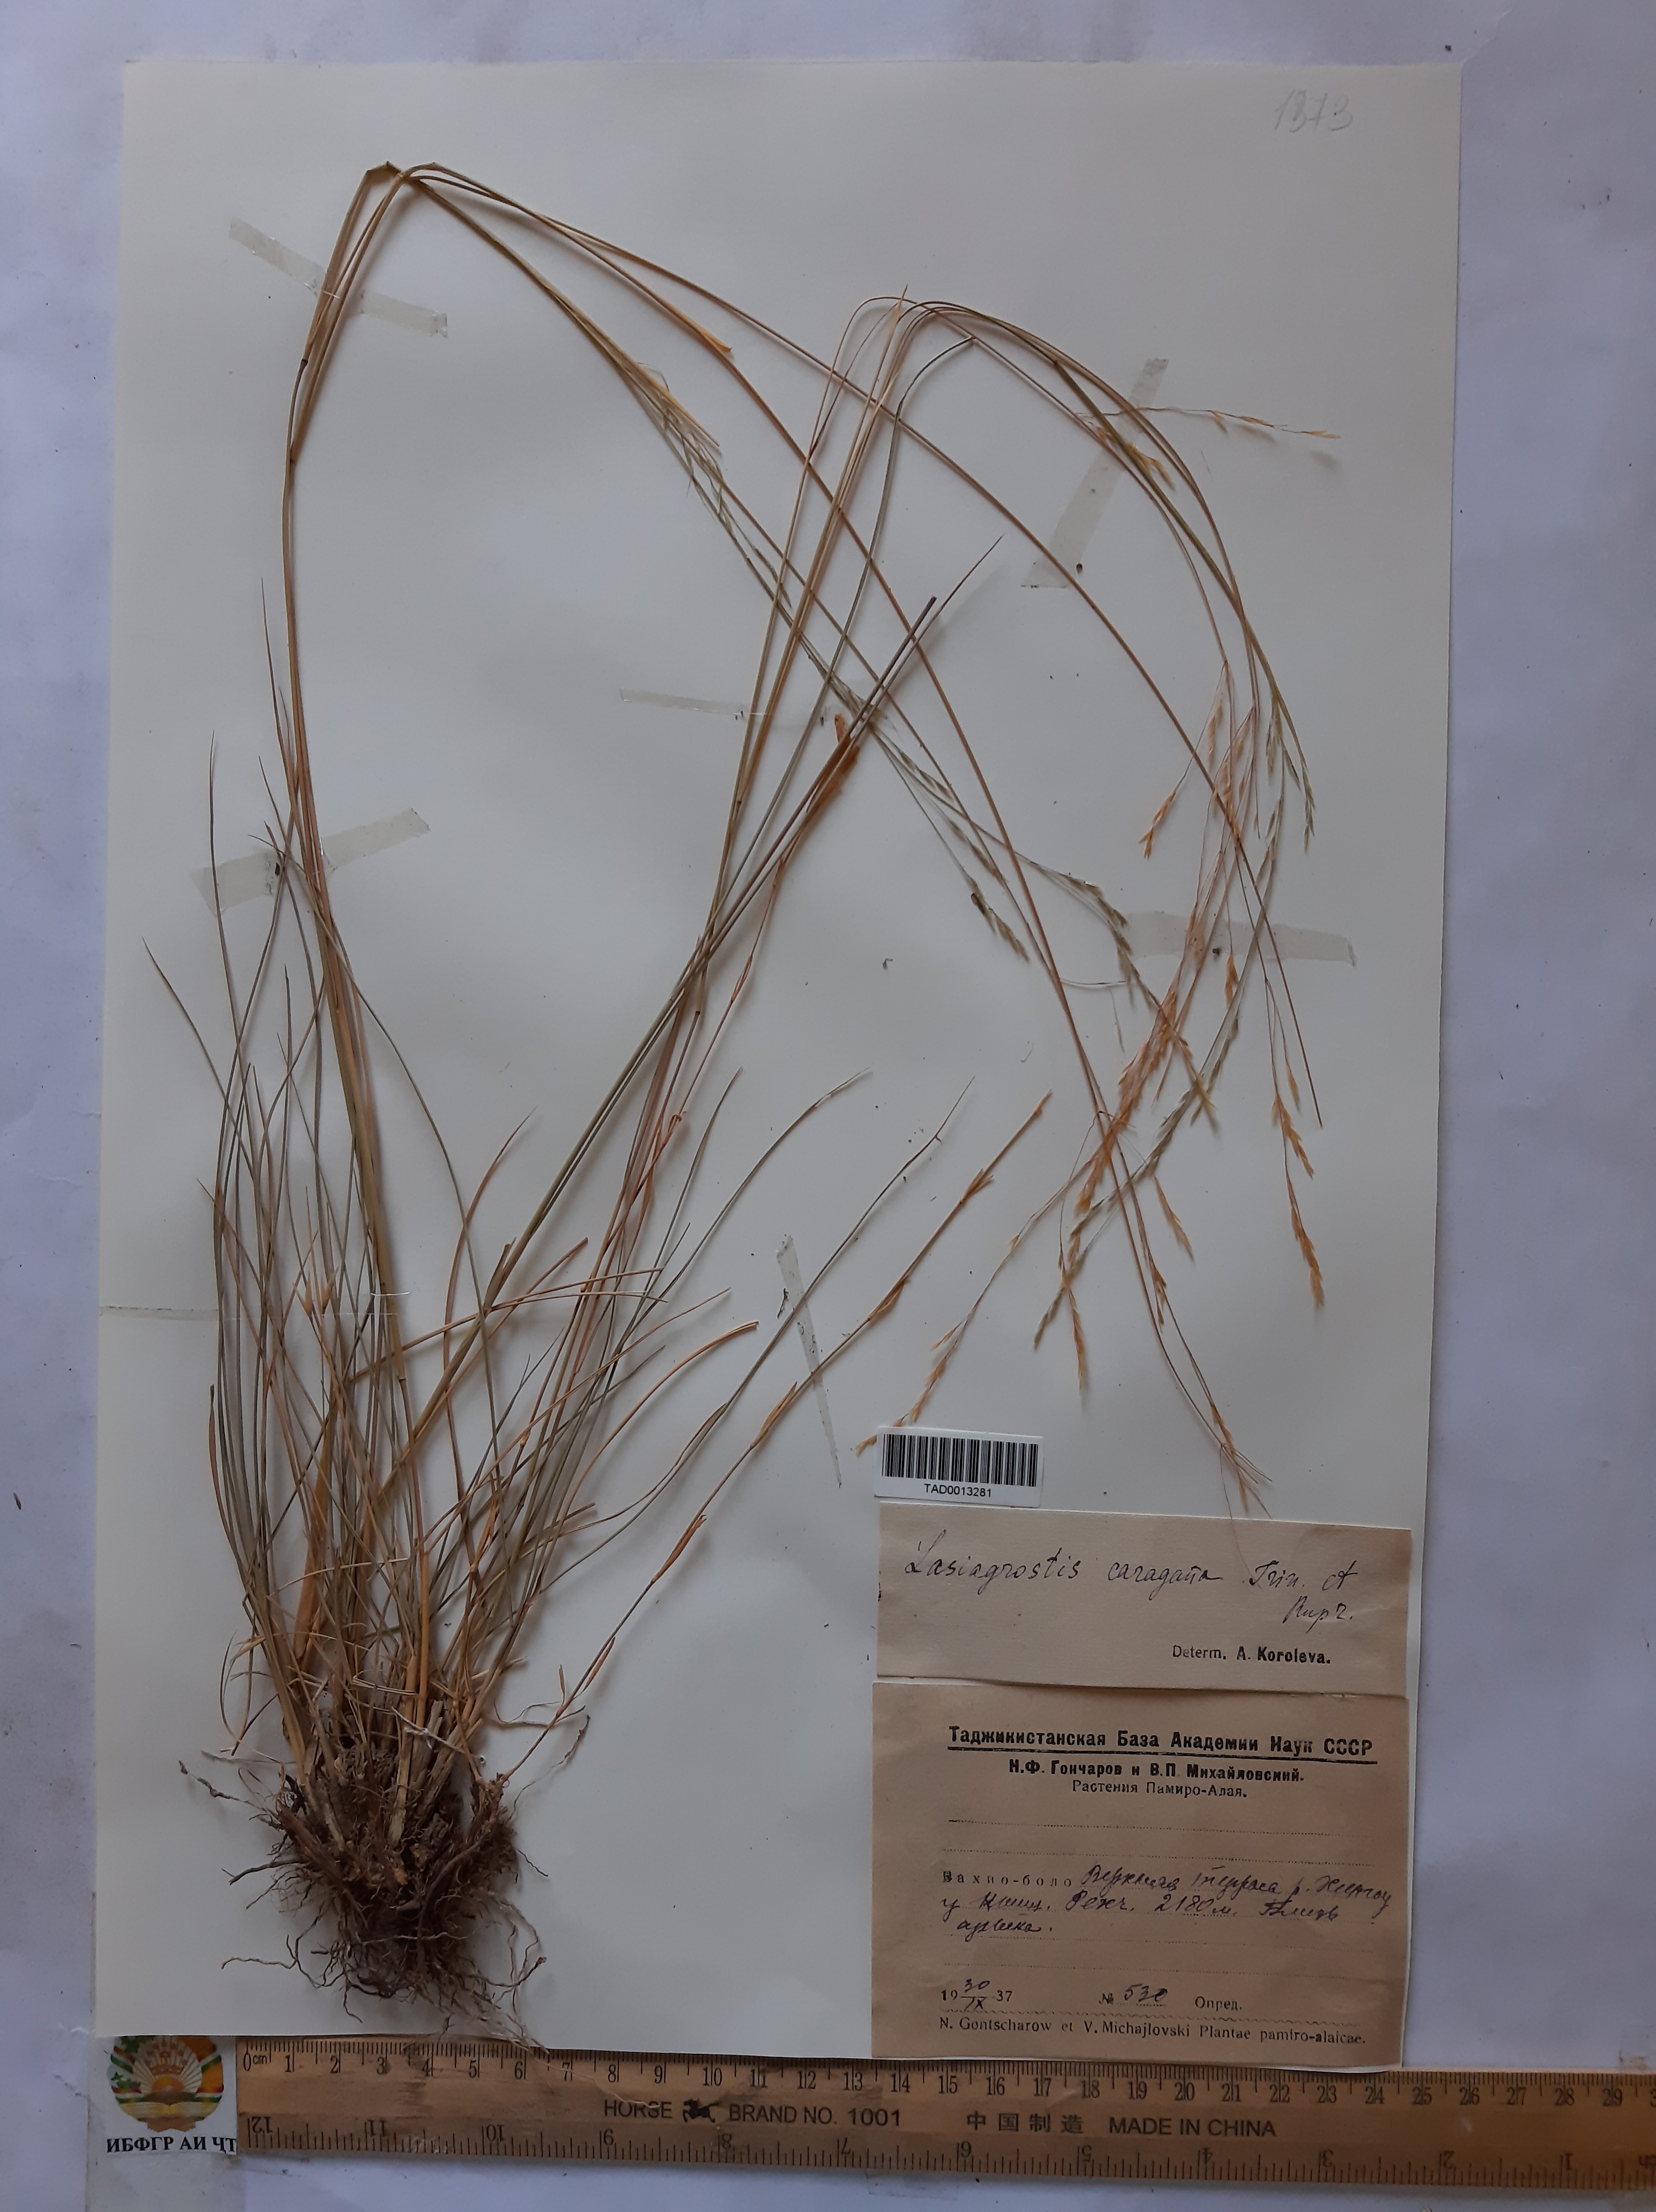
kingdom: Plantae
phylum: Tracheophyta
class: Liliopsida
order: Poales
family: Poaceae
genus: Stipa
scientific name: Stipa conferta
